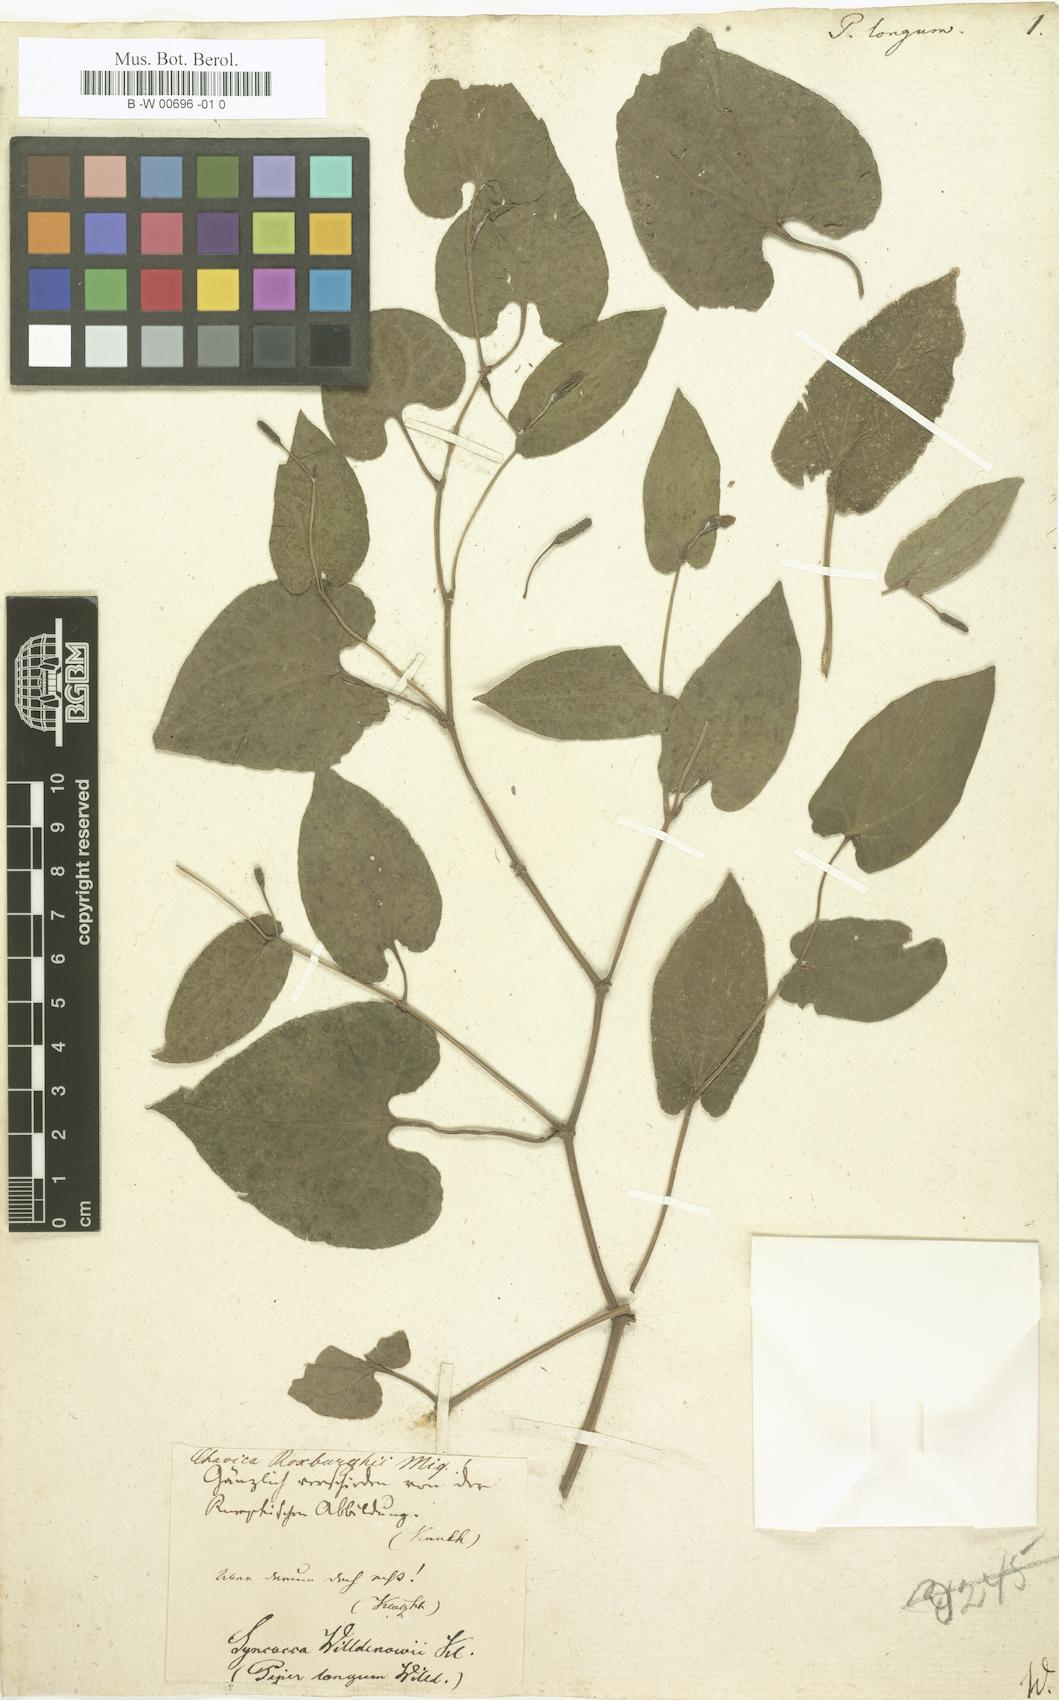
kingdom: Plantae
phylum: Tracheophyta
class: Magnoliopsida
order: Piperales
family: Piperaceae
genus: Piper
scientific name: Piper longum
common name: Long pepper
